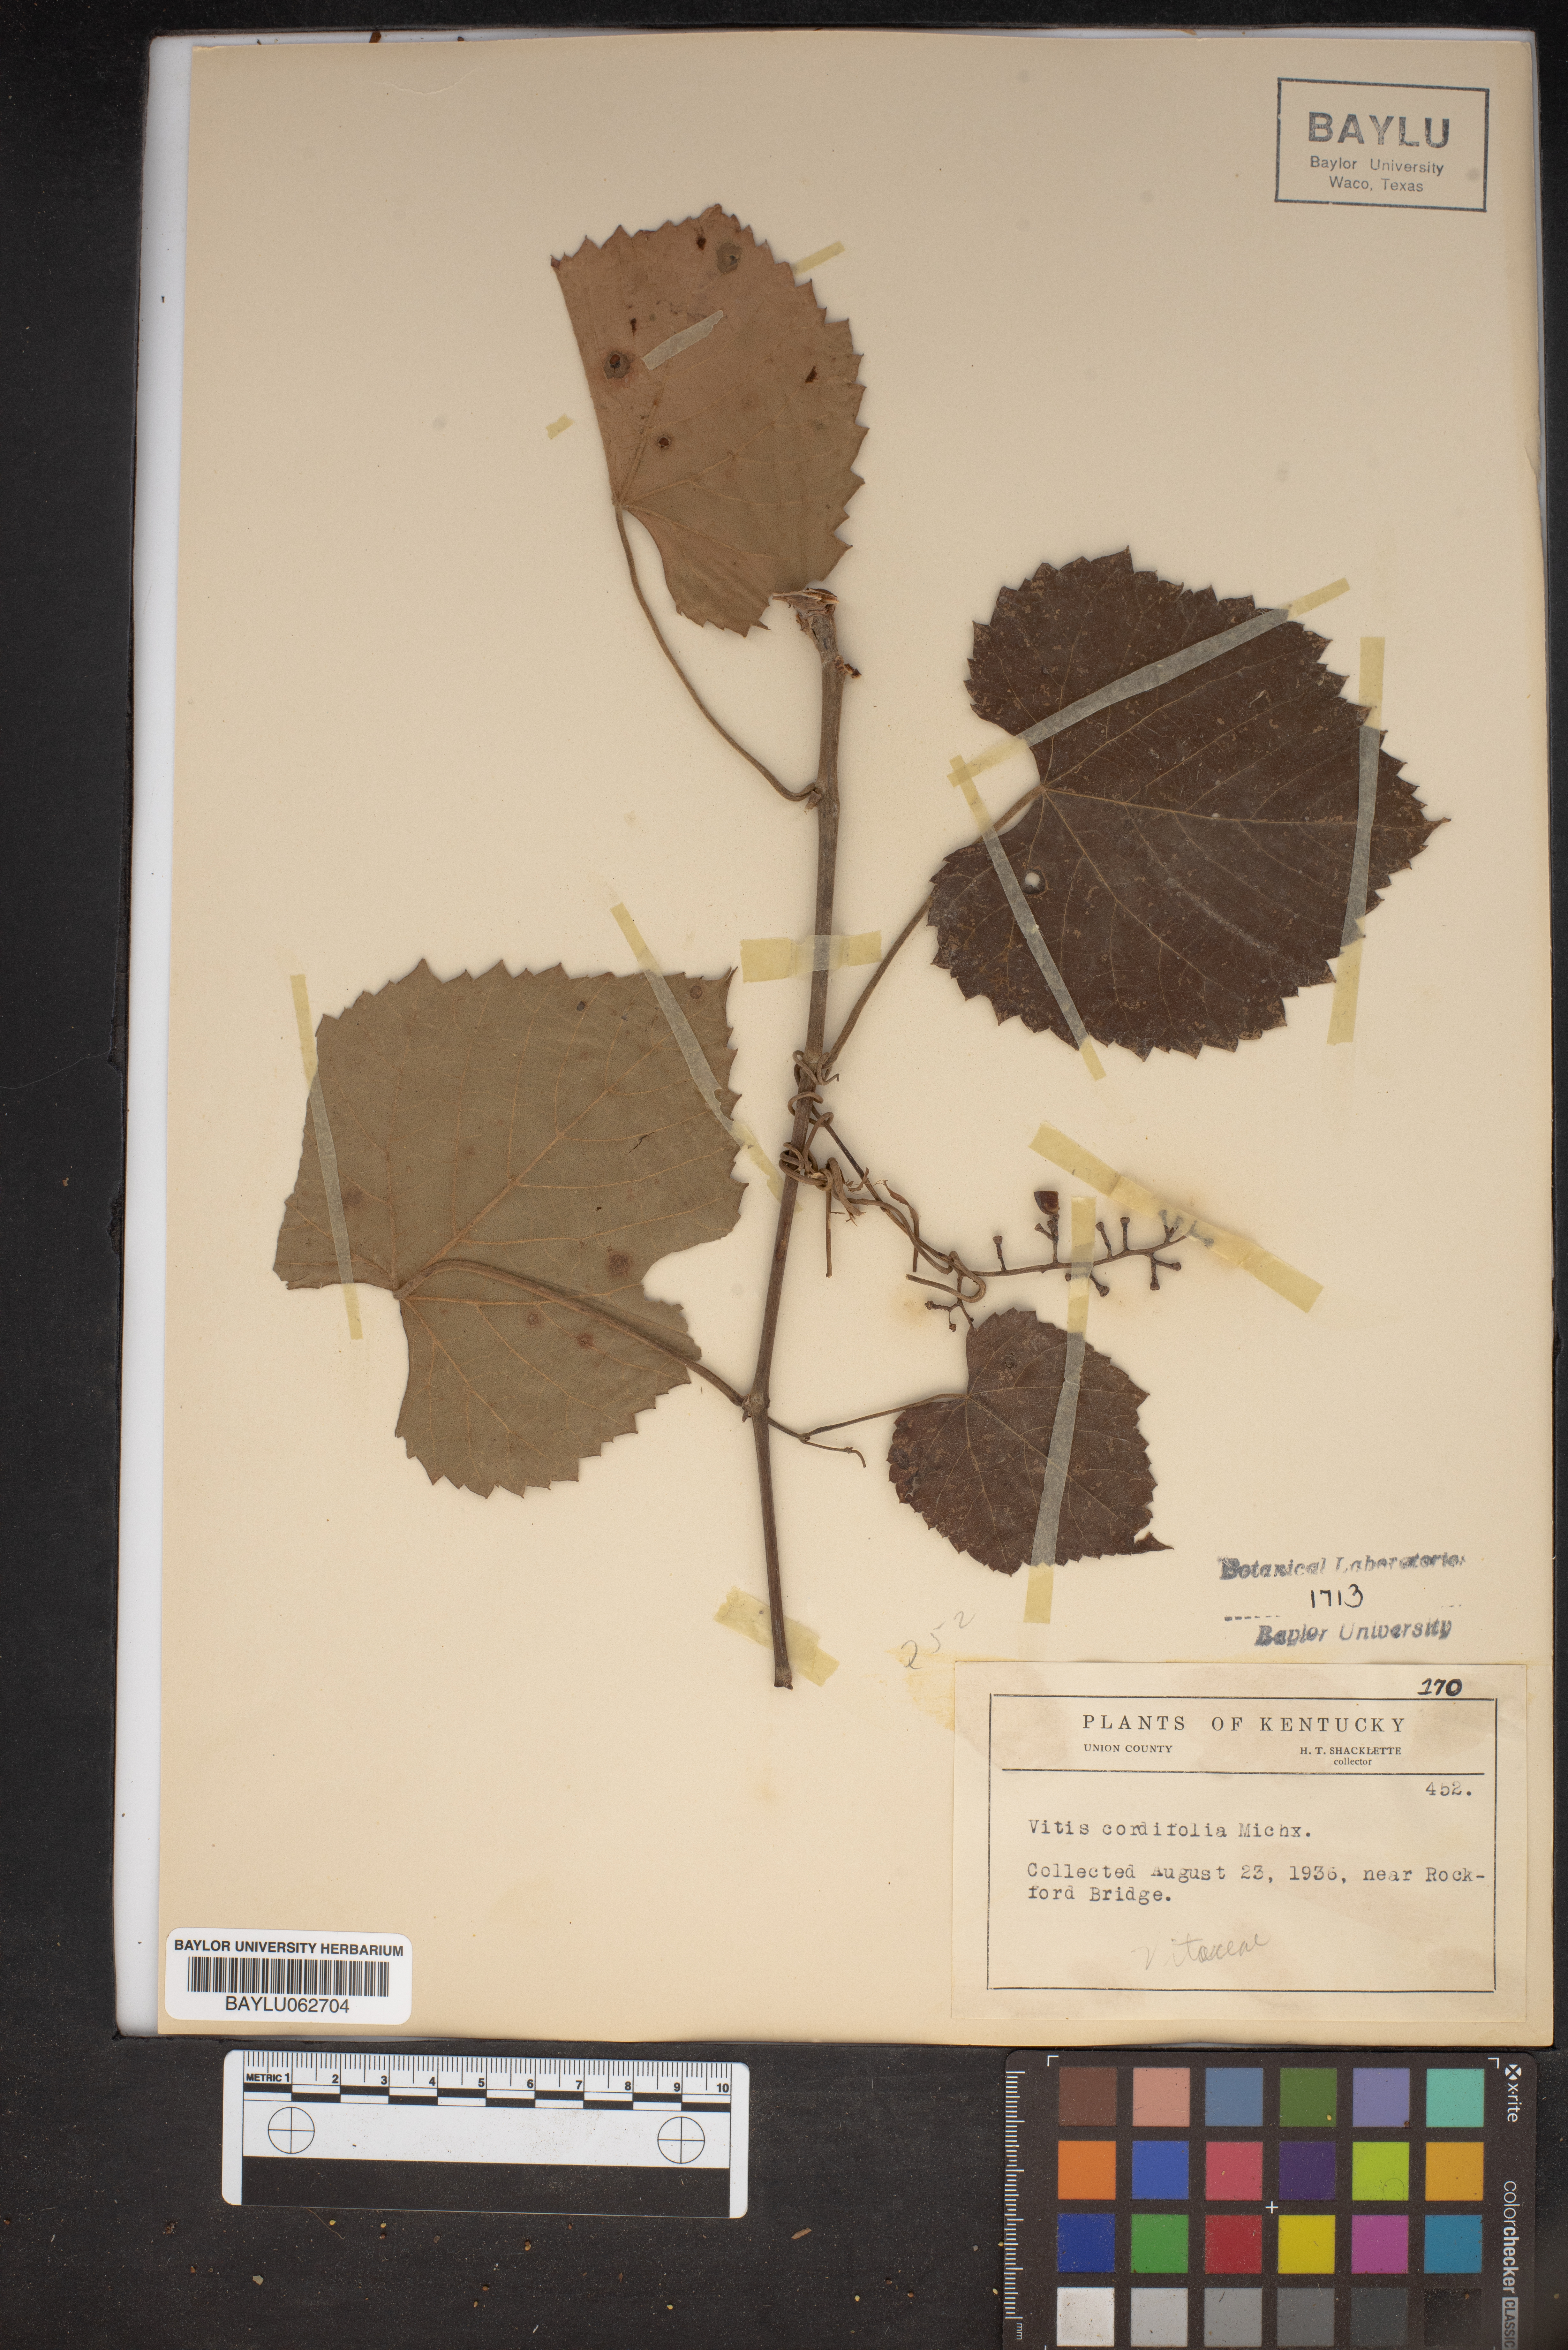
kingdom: Plantae
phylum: Tracheophyta
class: Magnoliopsida
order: Vitales
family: Vitaceae
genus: Vitis
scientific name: Vitis cordifolia
